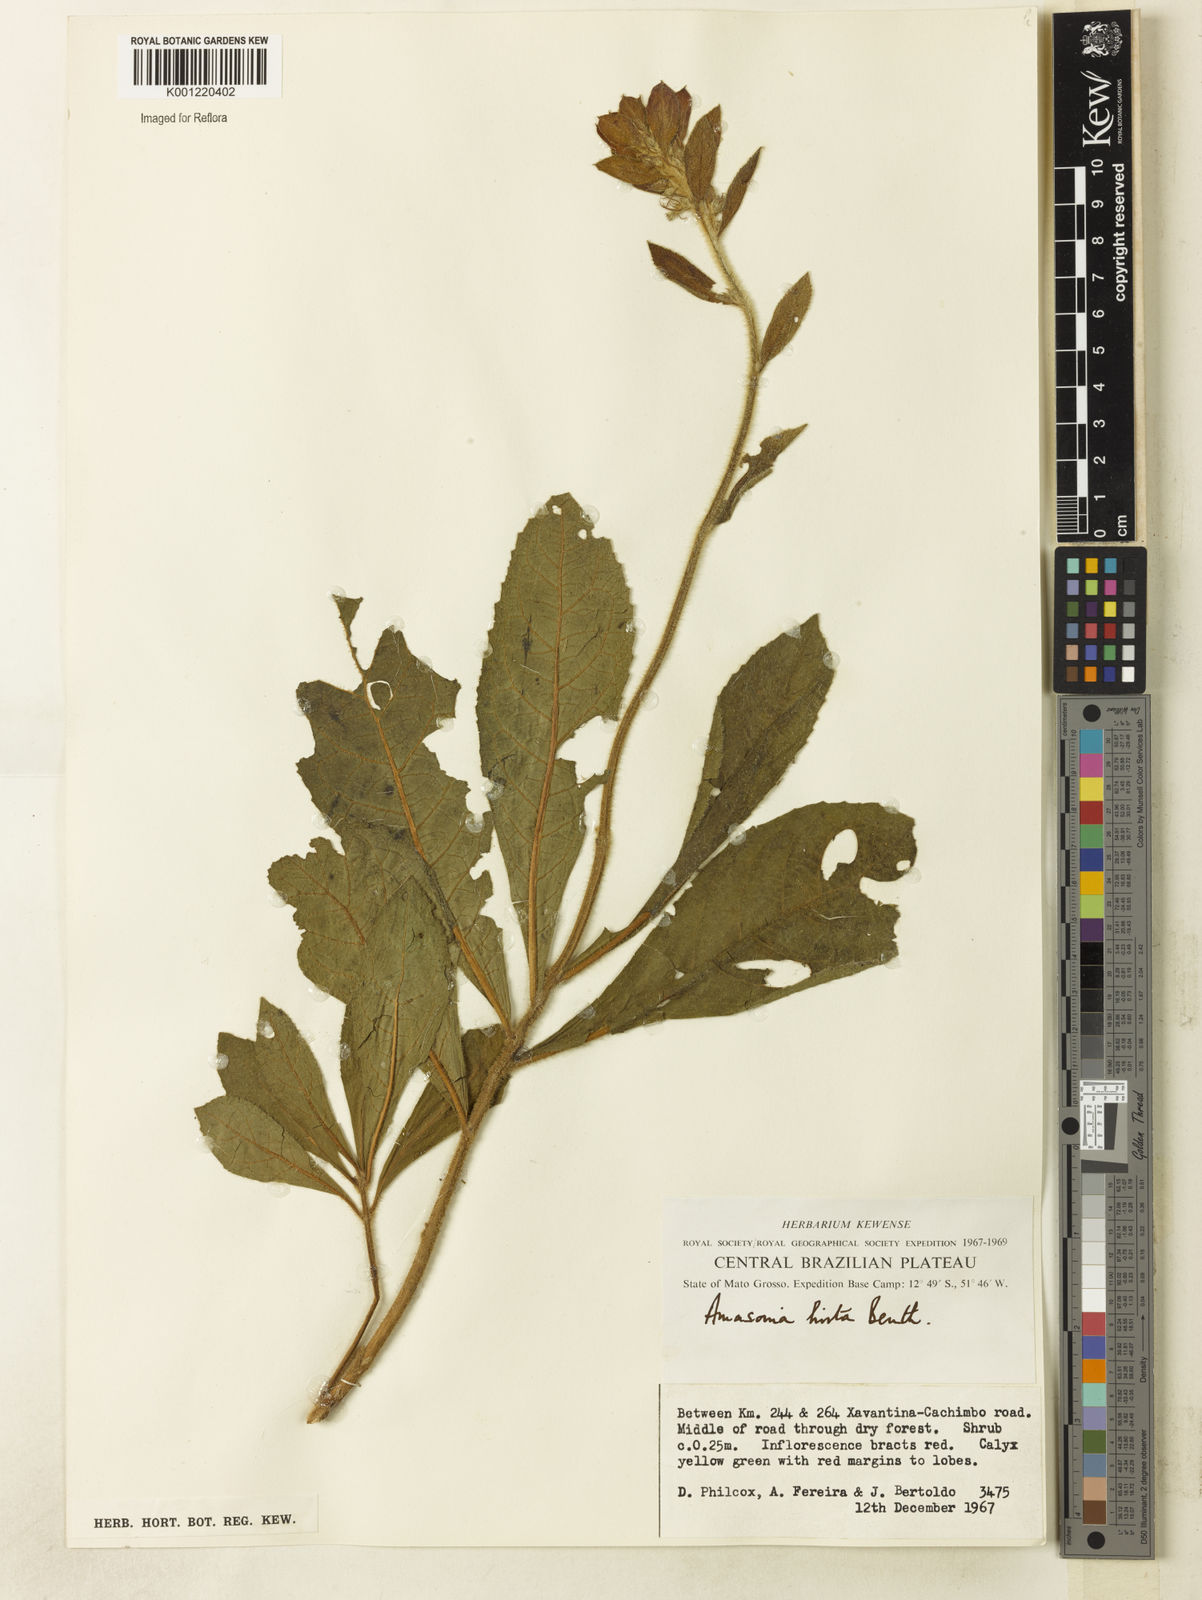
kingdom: Plantae
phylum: Tracheophyta
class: Magnoliopsida
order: Lamiales
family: Lamiaceae
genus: Amasonia
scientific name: Amasonia hirta
